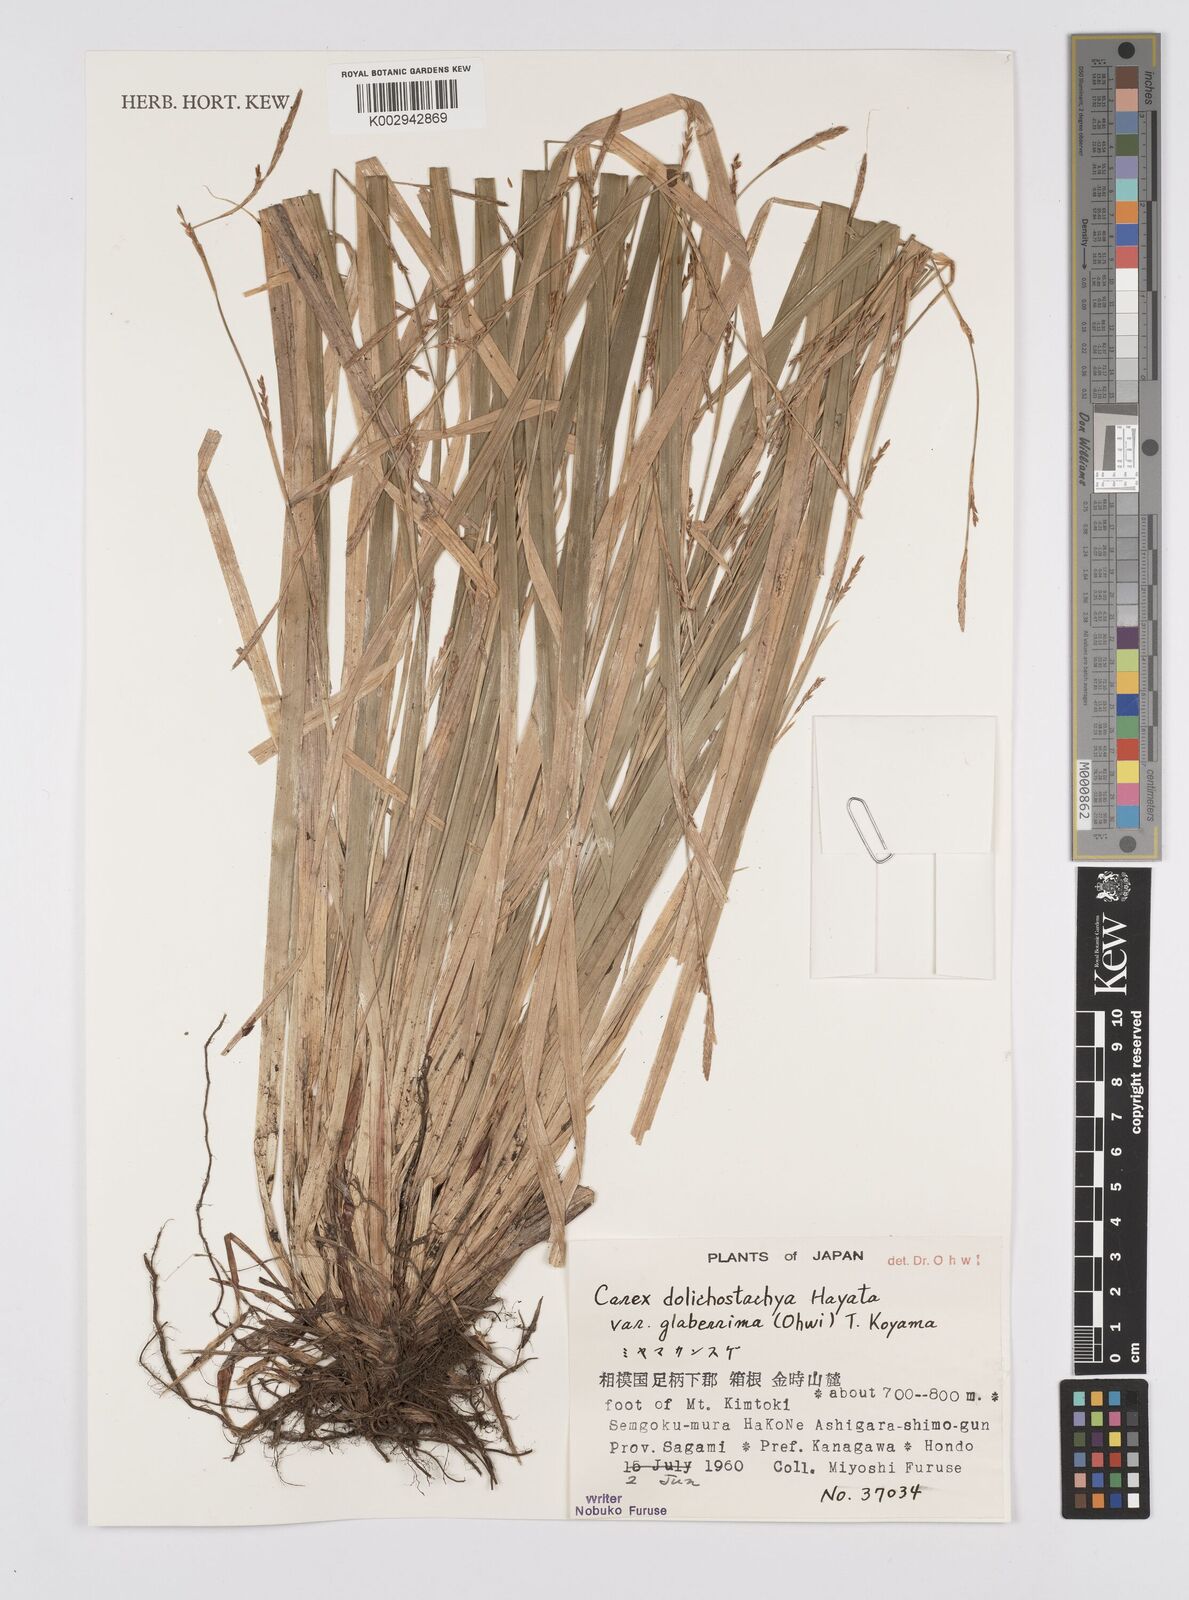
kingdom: Plantae
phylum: Tracheophyta
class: Liliopsida
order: Poales
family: Cyperaceae
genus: Carex
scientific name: Carex dolichostachya
